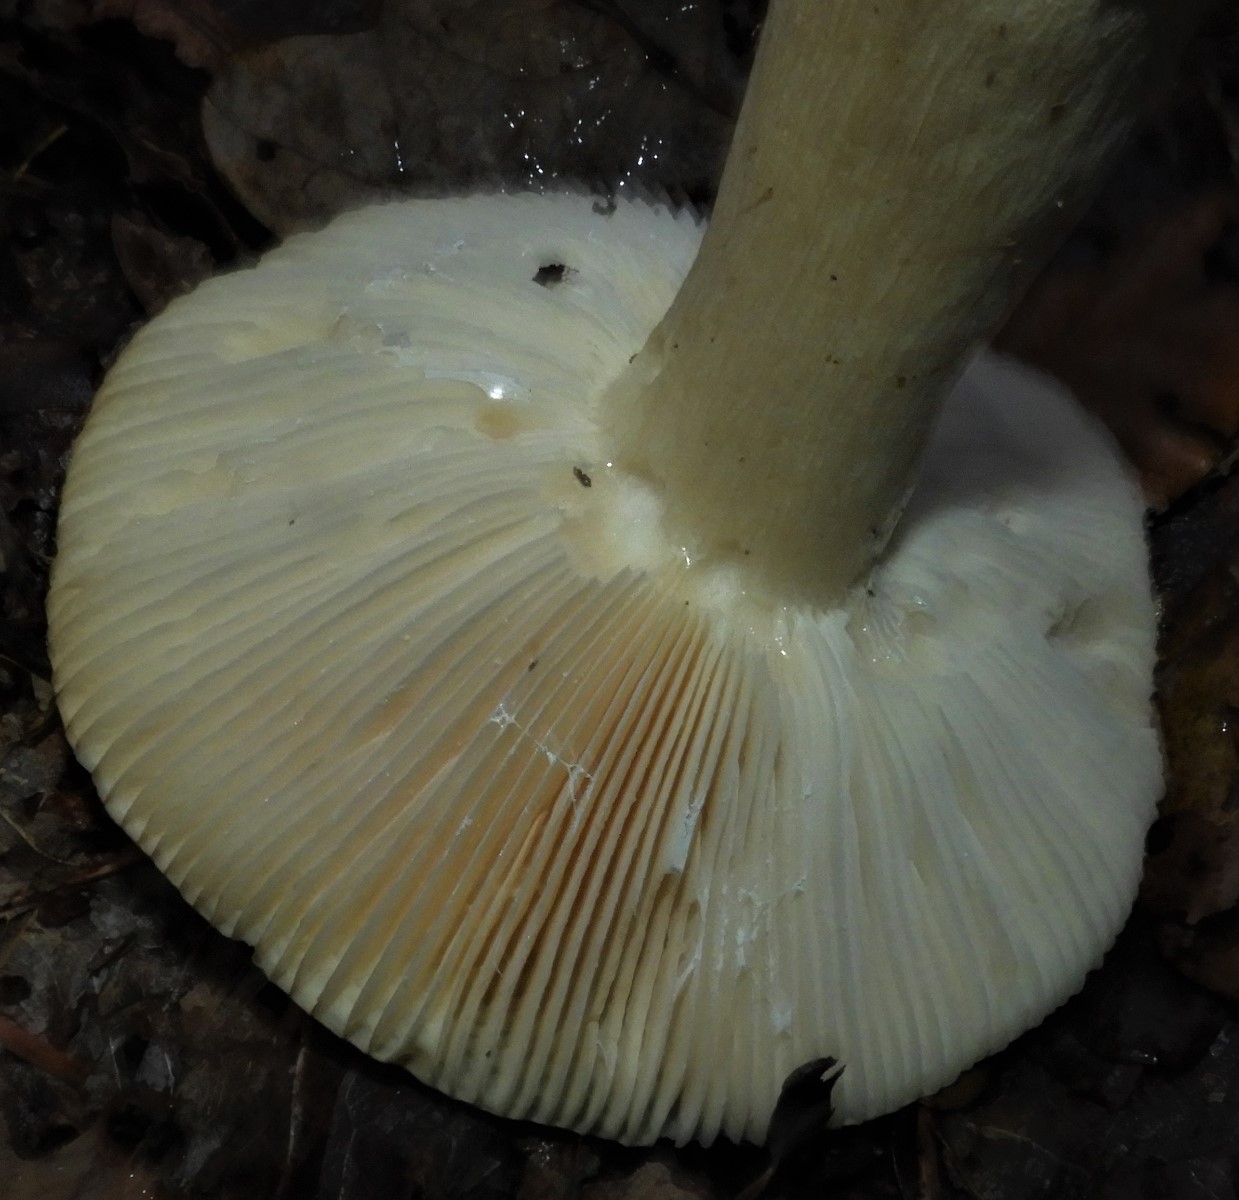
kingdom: Fungi
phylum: Basidiomycota
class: Agaricomycetes
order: Russulales
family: Russulaceae
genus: Russula
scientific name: Russula fellea
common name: galde-skørhat
